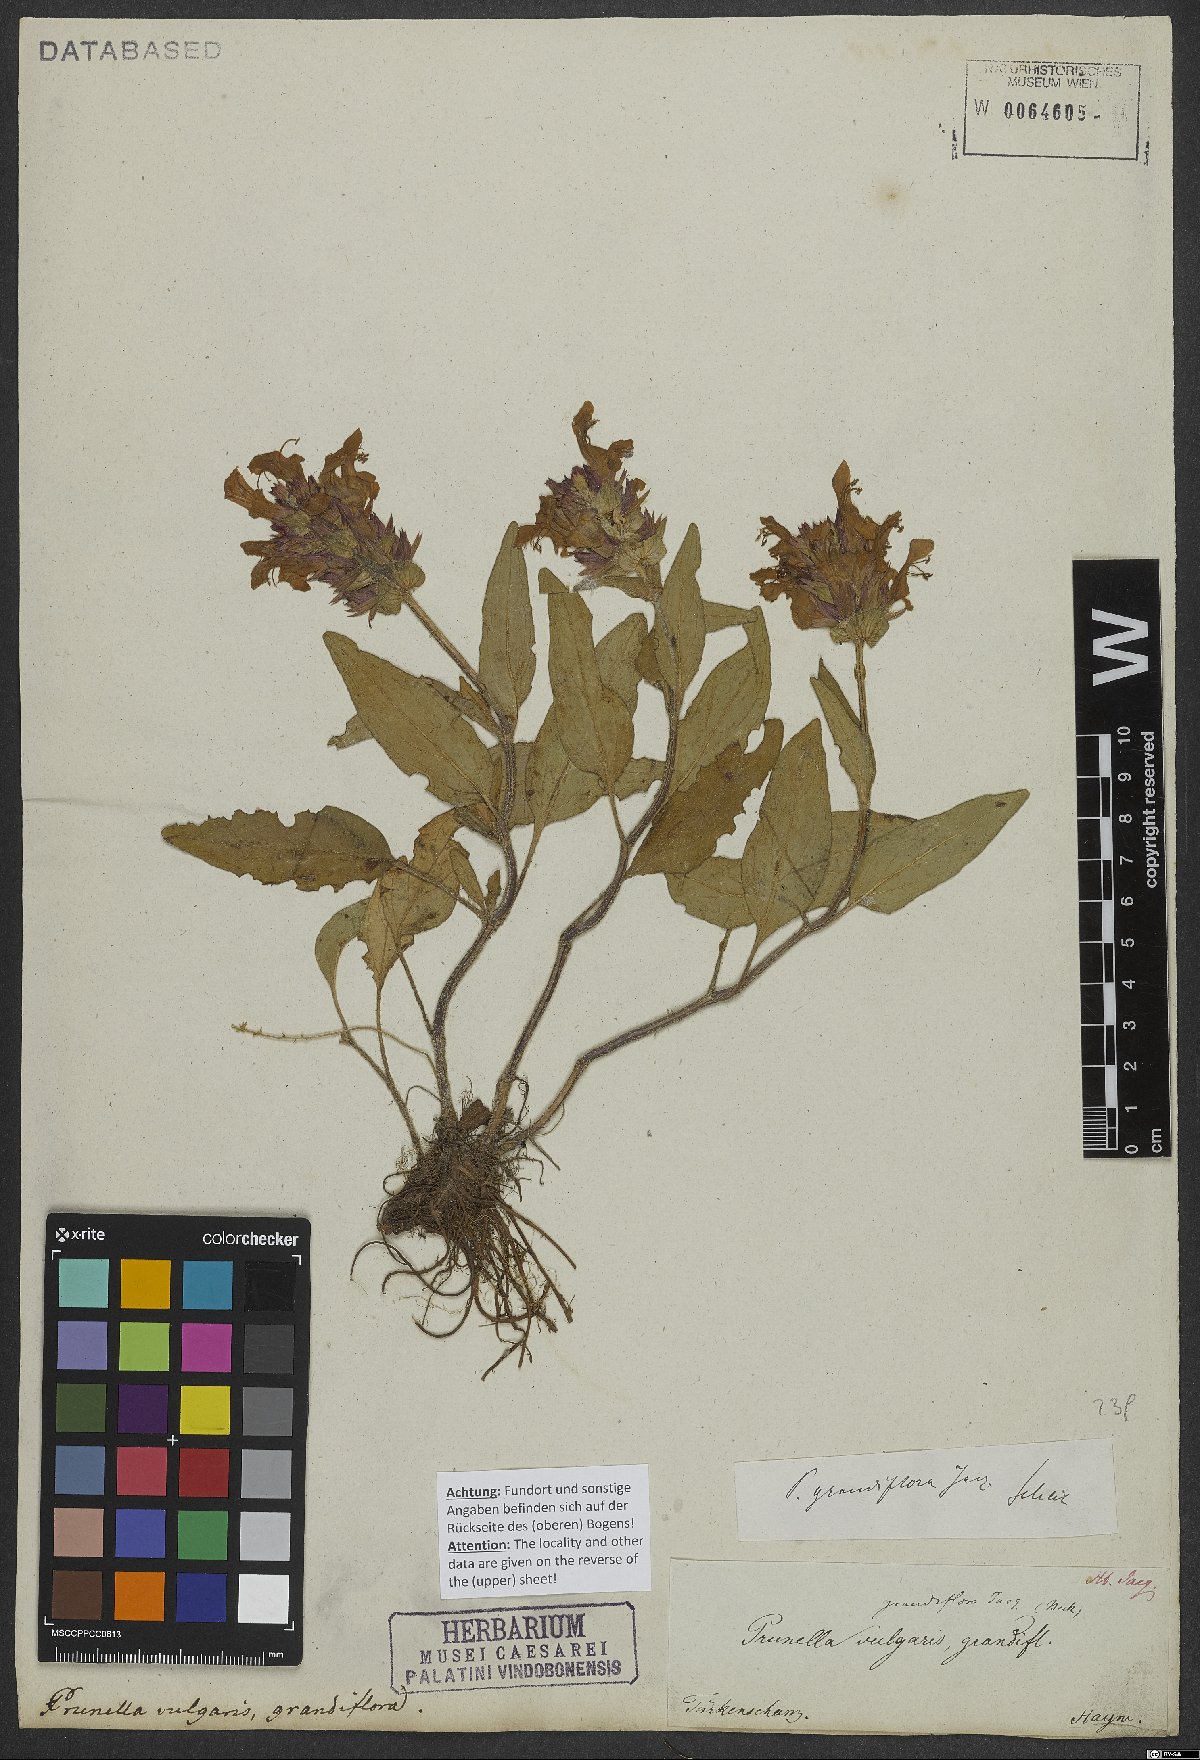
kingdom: Plantae
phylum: Tracheophyta
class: Magnoliopsida
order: Lamiales
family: Lamiaceae
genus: Prunella
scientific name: Prunella grandiflora
